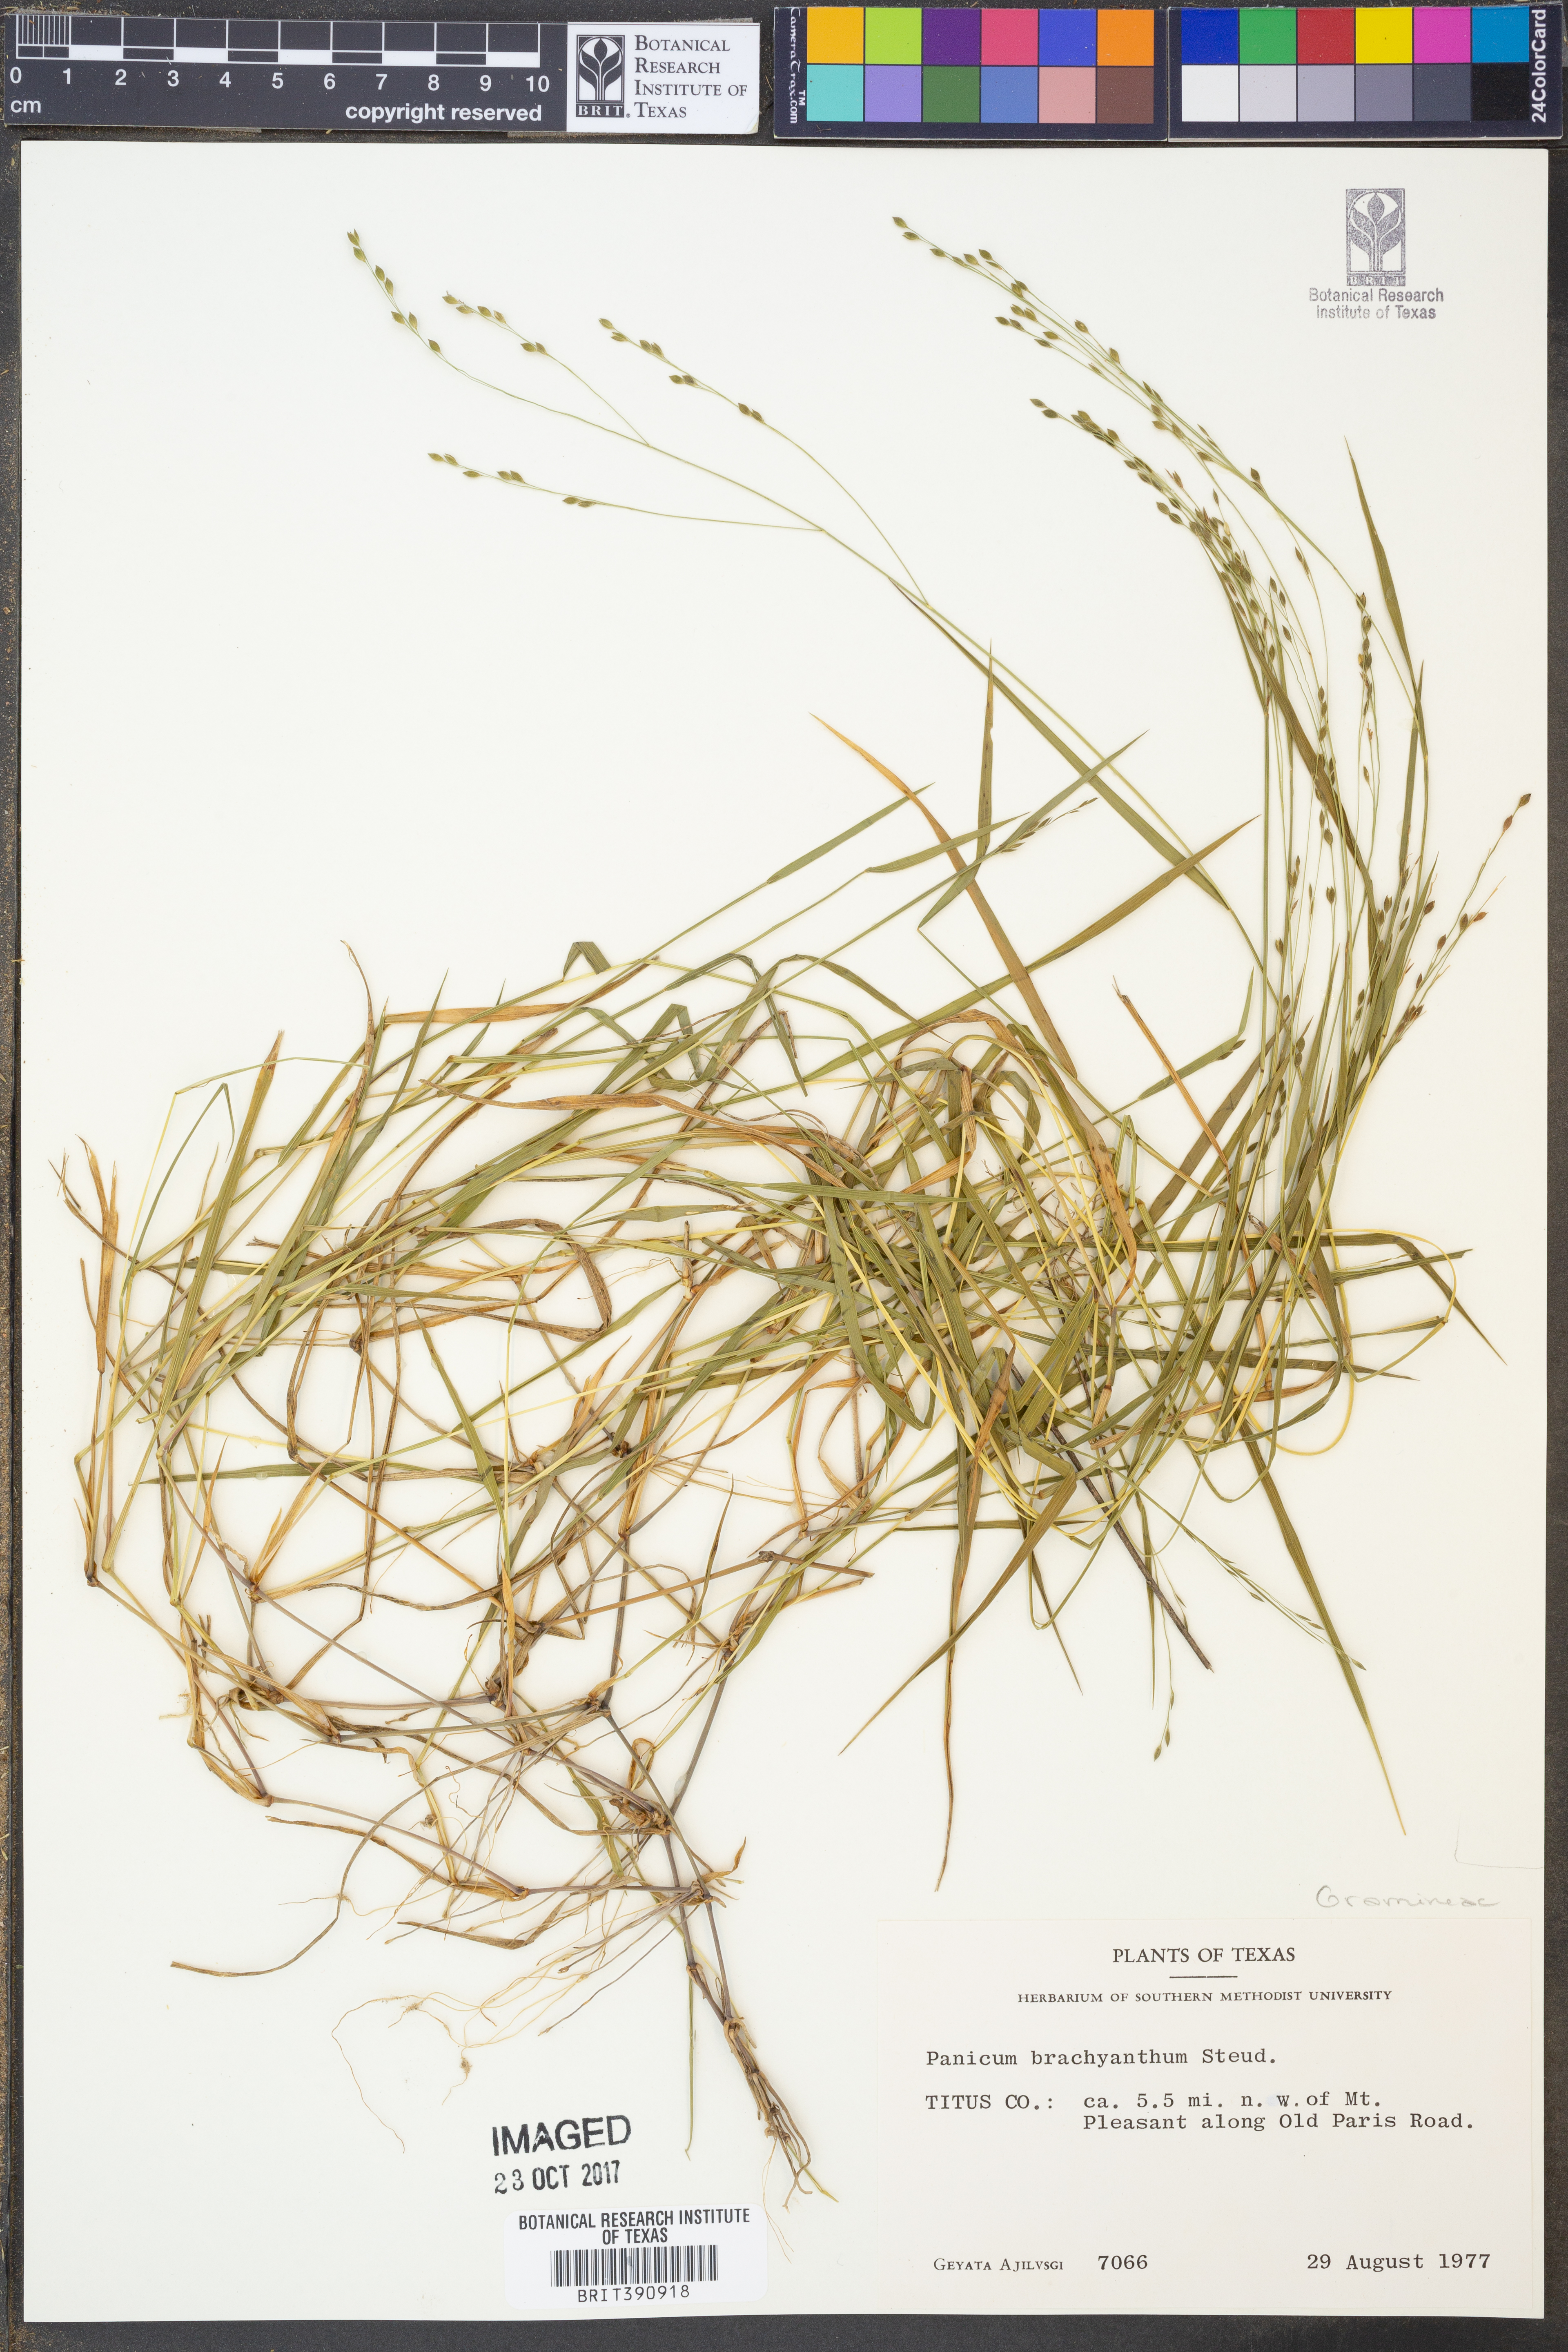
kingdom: Plantae
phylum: Tracheophyta
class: Liliopsida
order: Poales
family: Poaceae
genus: Kellochloa
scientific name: Kellochloa brachyantha
